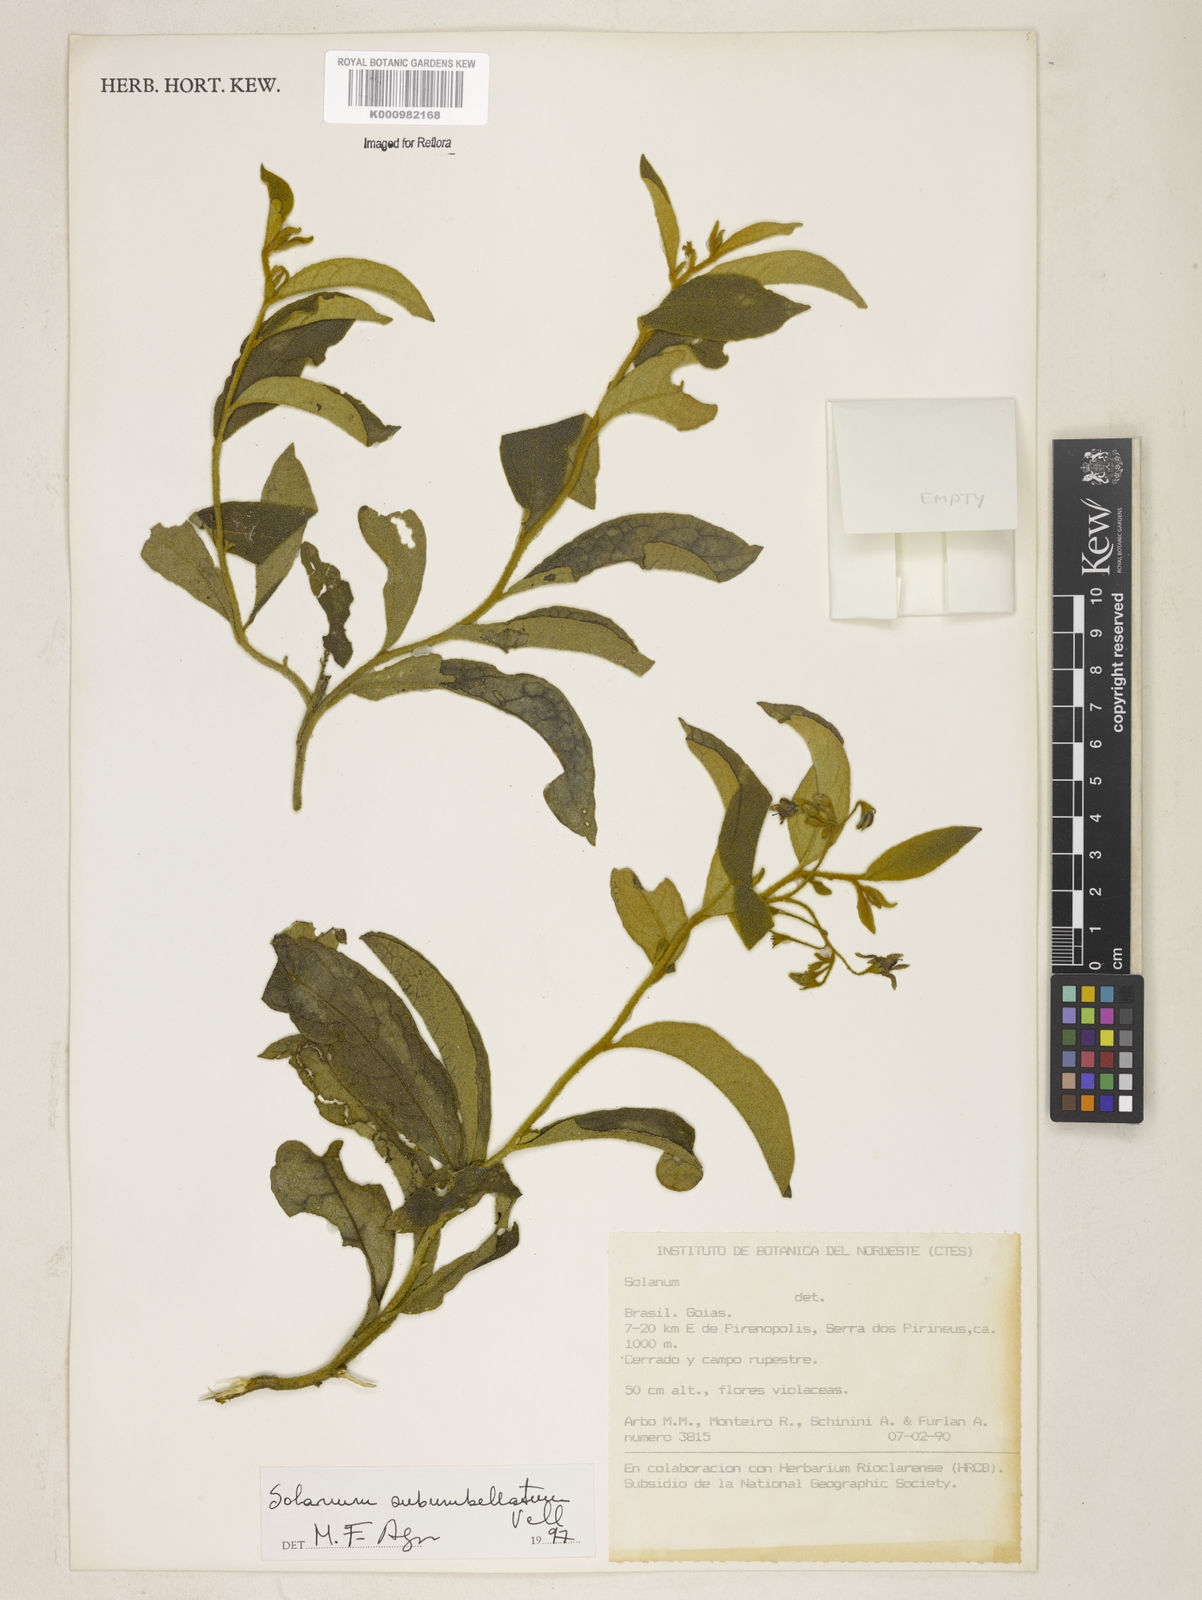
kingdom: Plantae
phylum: Tracheophyta
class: Magnoliopsida
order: Solanales
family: Solanaceae
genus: Solanum
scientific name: Solanum subumbellatum
